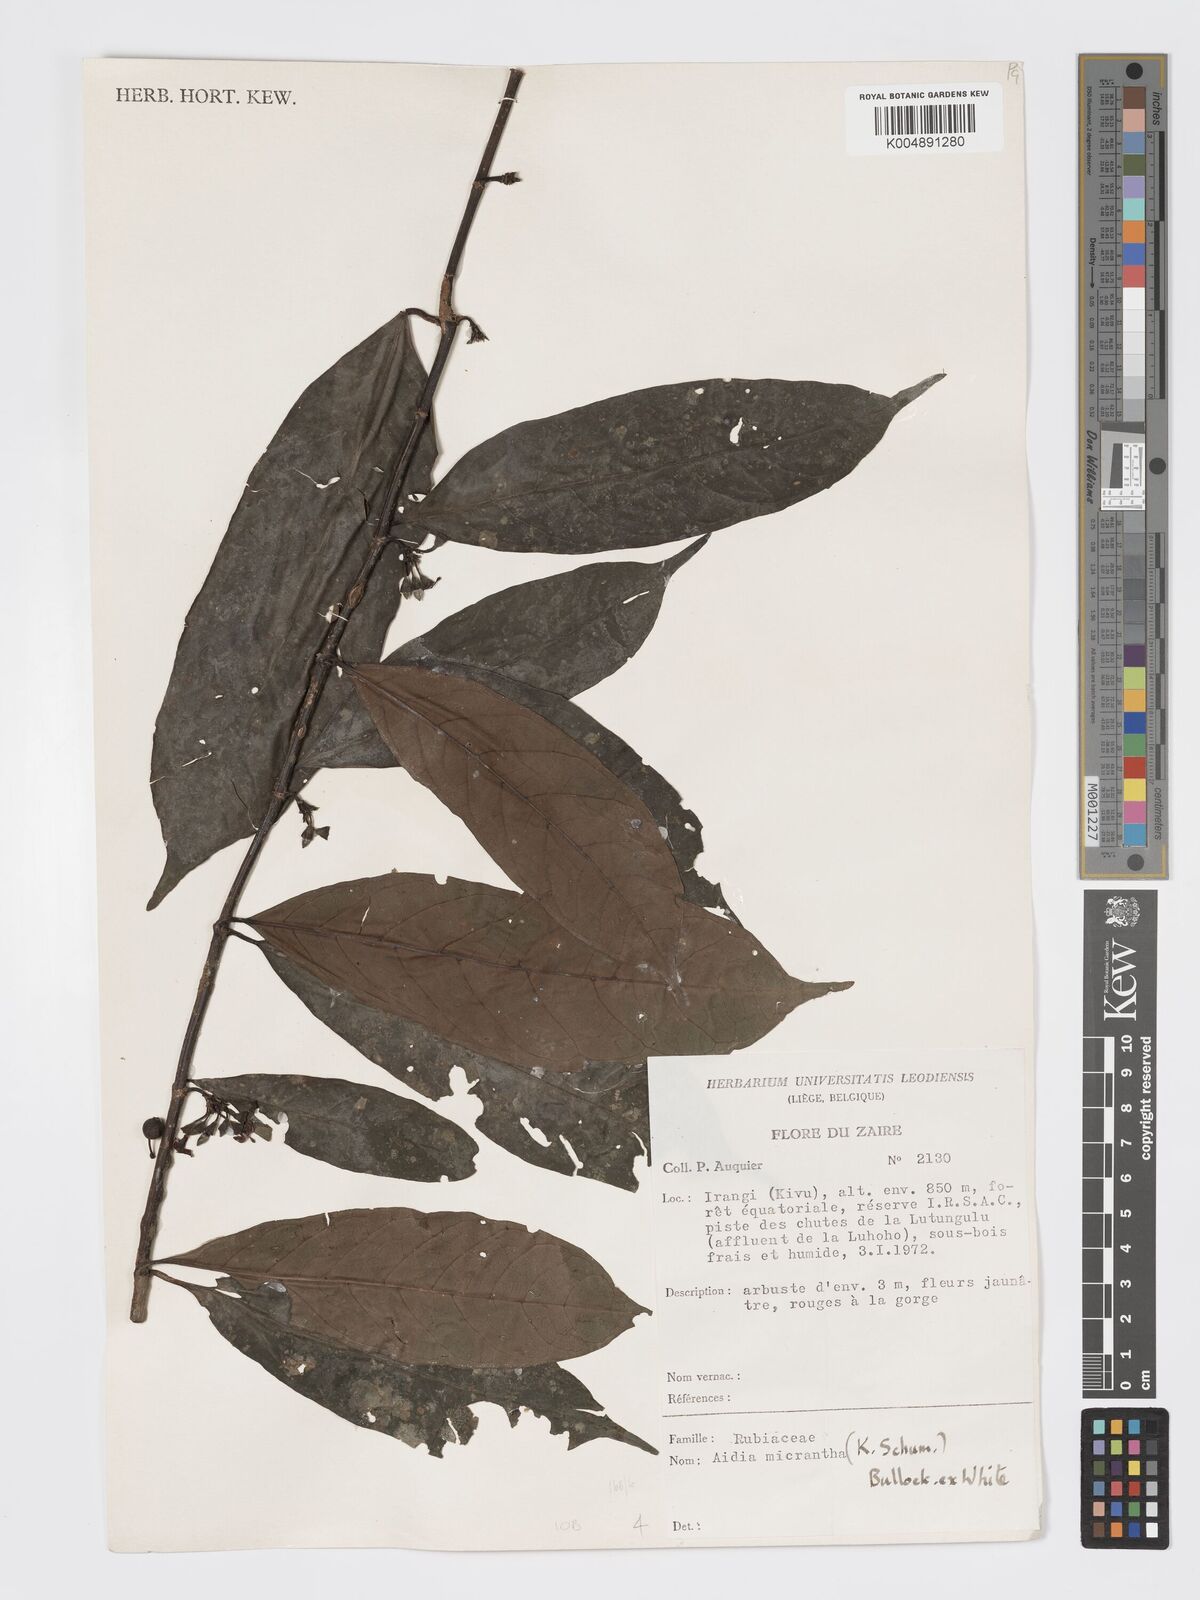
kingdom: Plantae
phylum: Tracheophyta
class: Magnoliopsida
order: Gentianales
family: Rubiaceae
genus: Aidia
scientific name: Aidia micrantha
